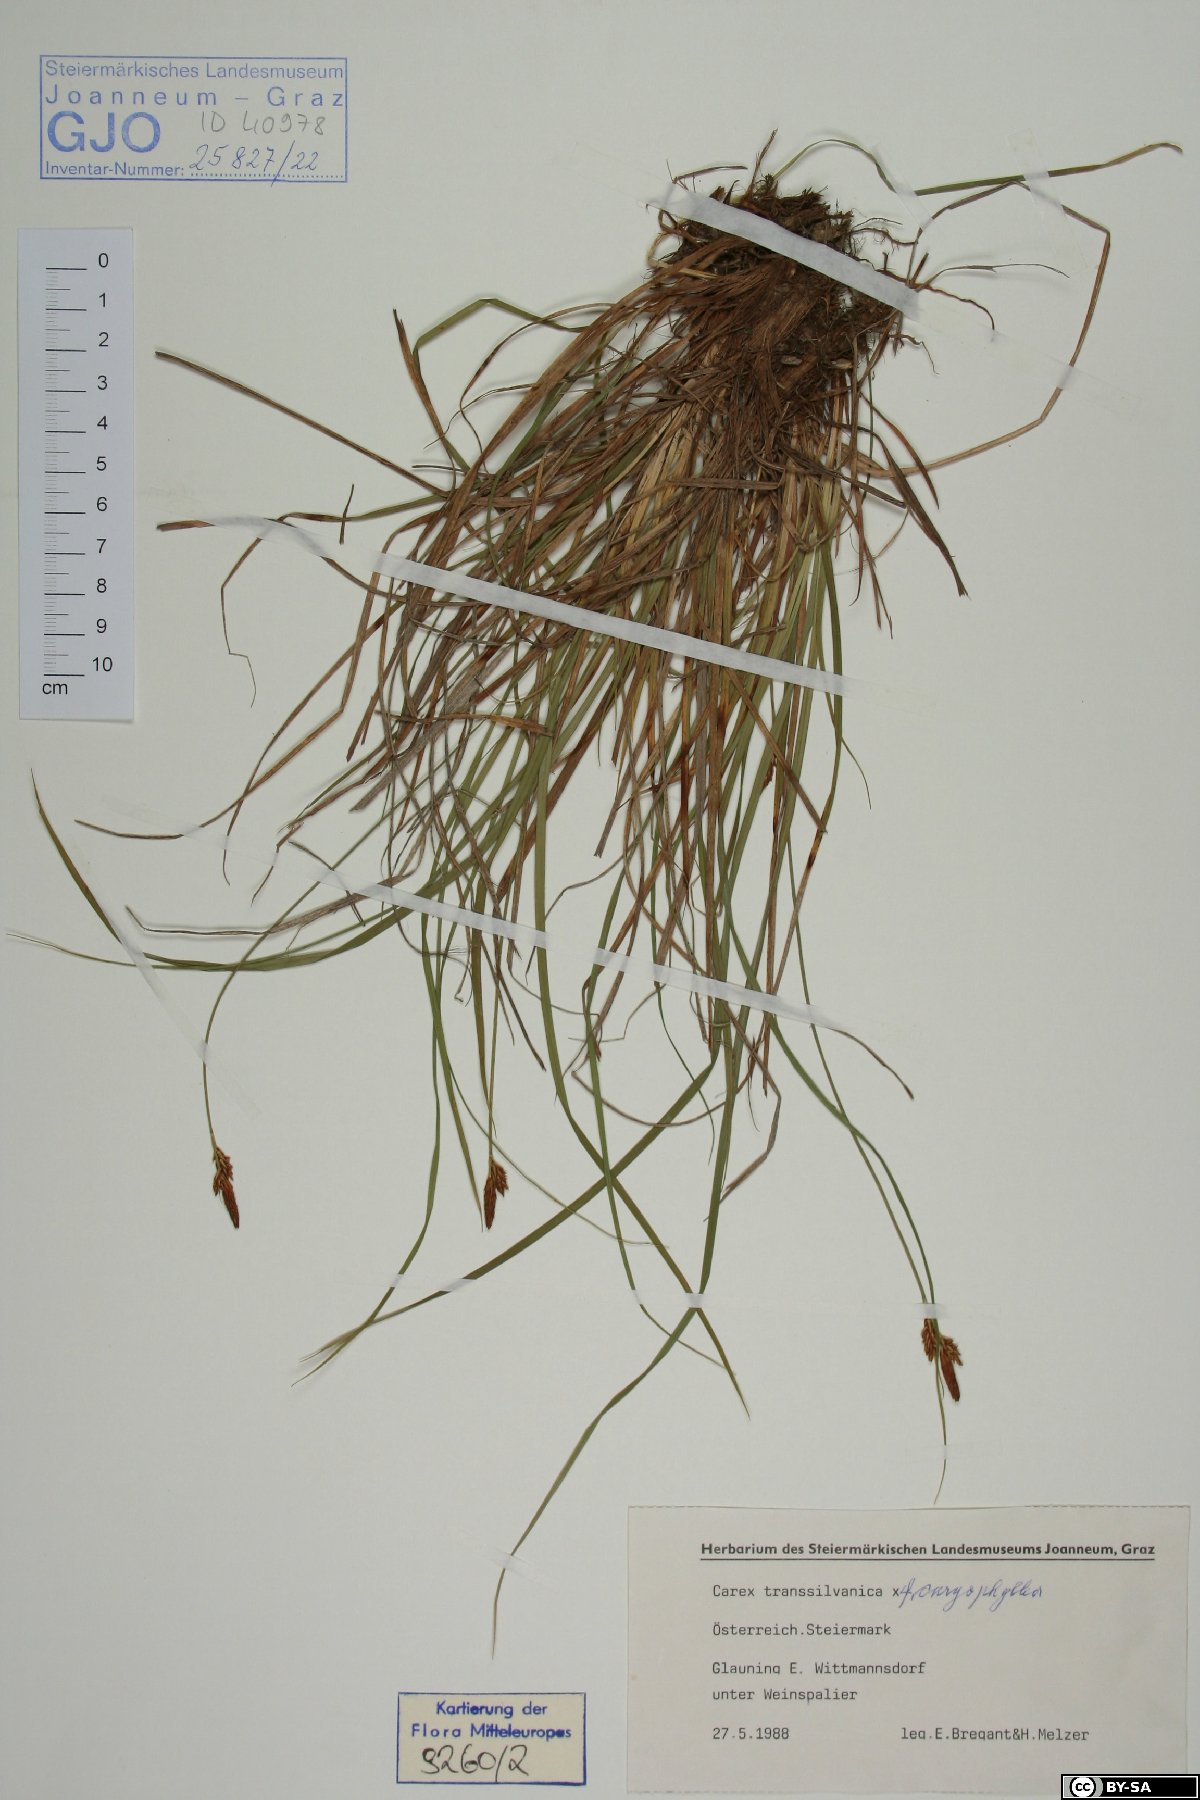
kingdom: Plantae
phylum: Tracheophyta
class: Liliopsida
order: Poales
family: Cyperaceae
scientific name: Cyperaceae
